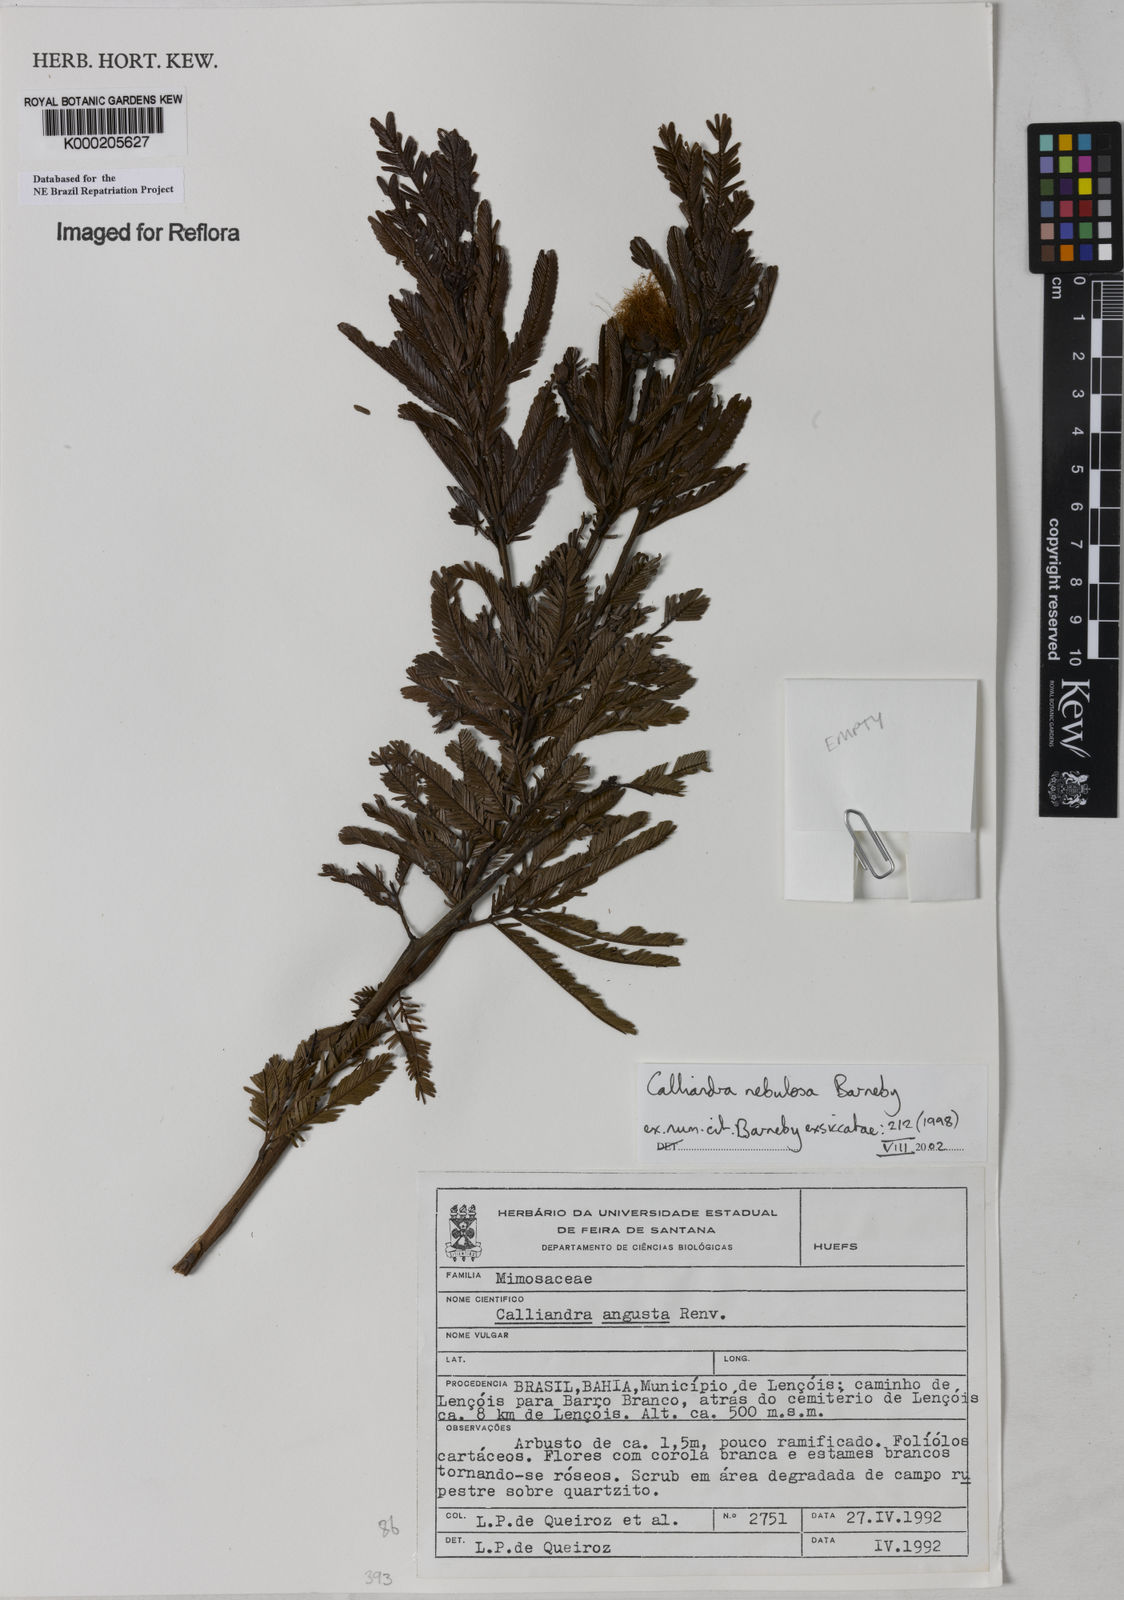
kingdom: Plantae
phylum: Tracheophyta
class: Magnoliopsida
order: Fabales
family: Fabaceae
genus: Calliandra
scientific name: Calliandra nebulosa
